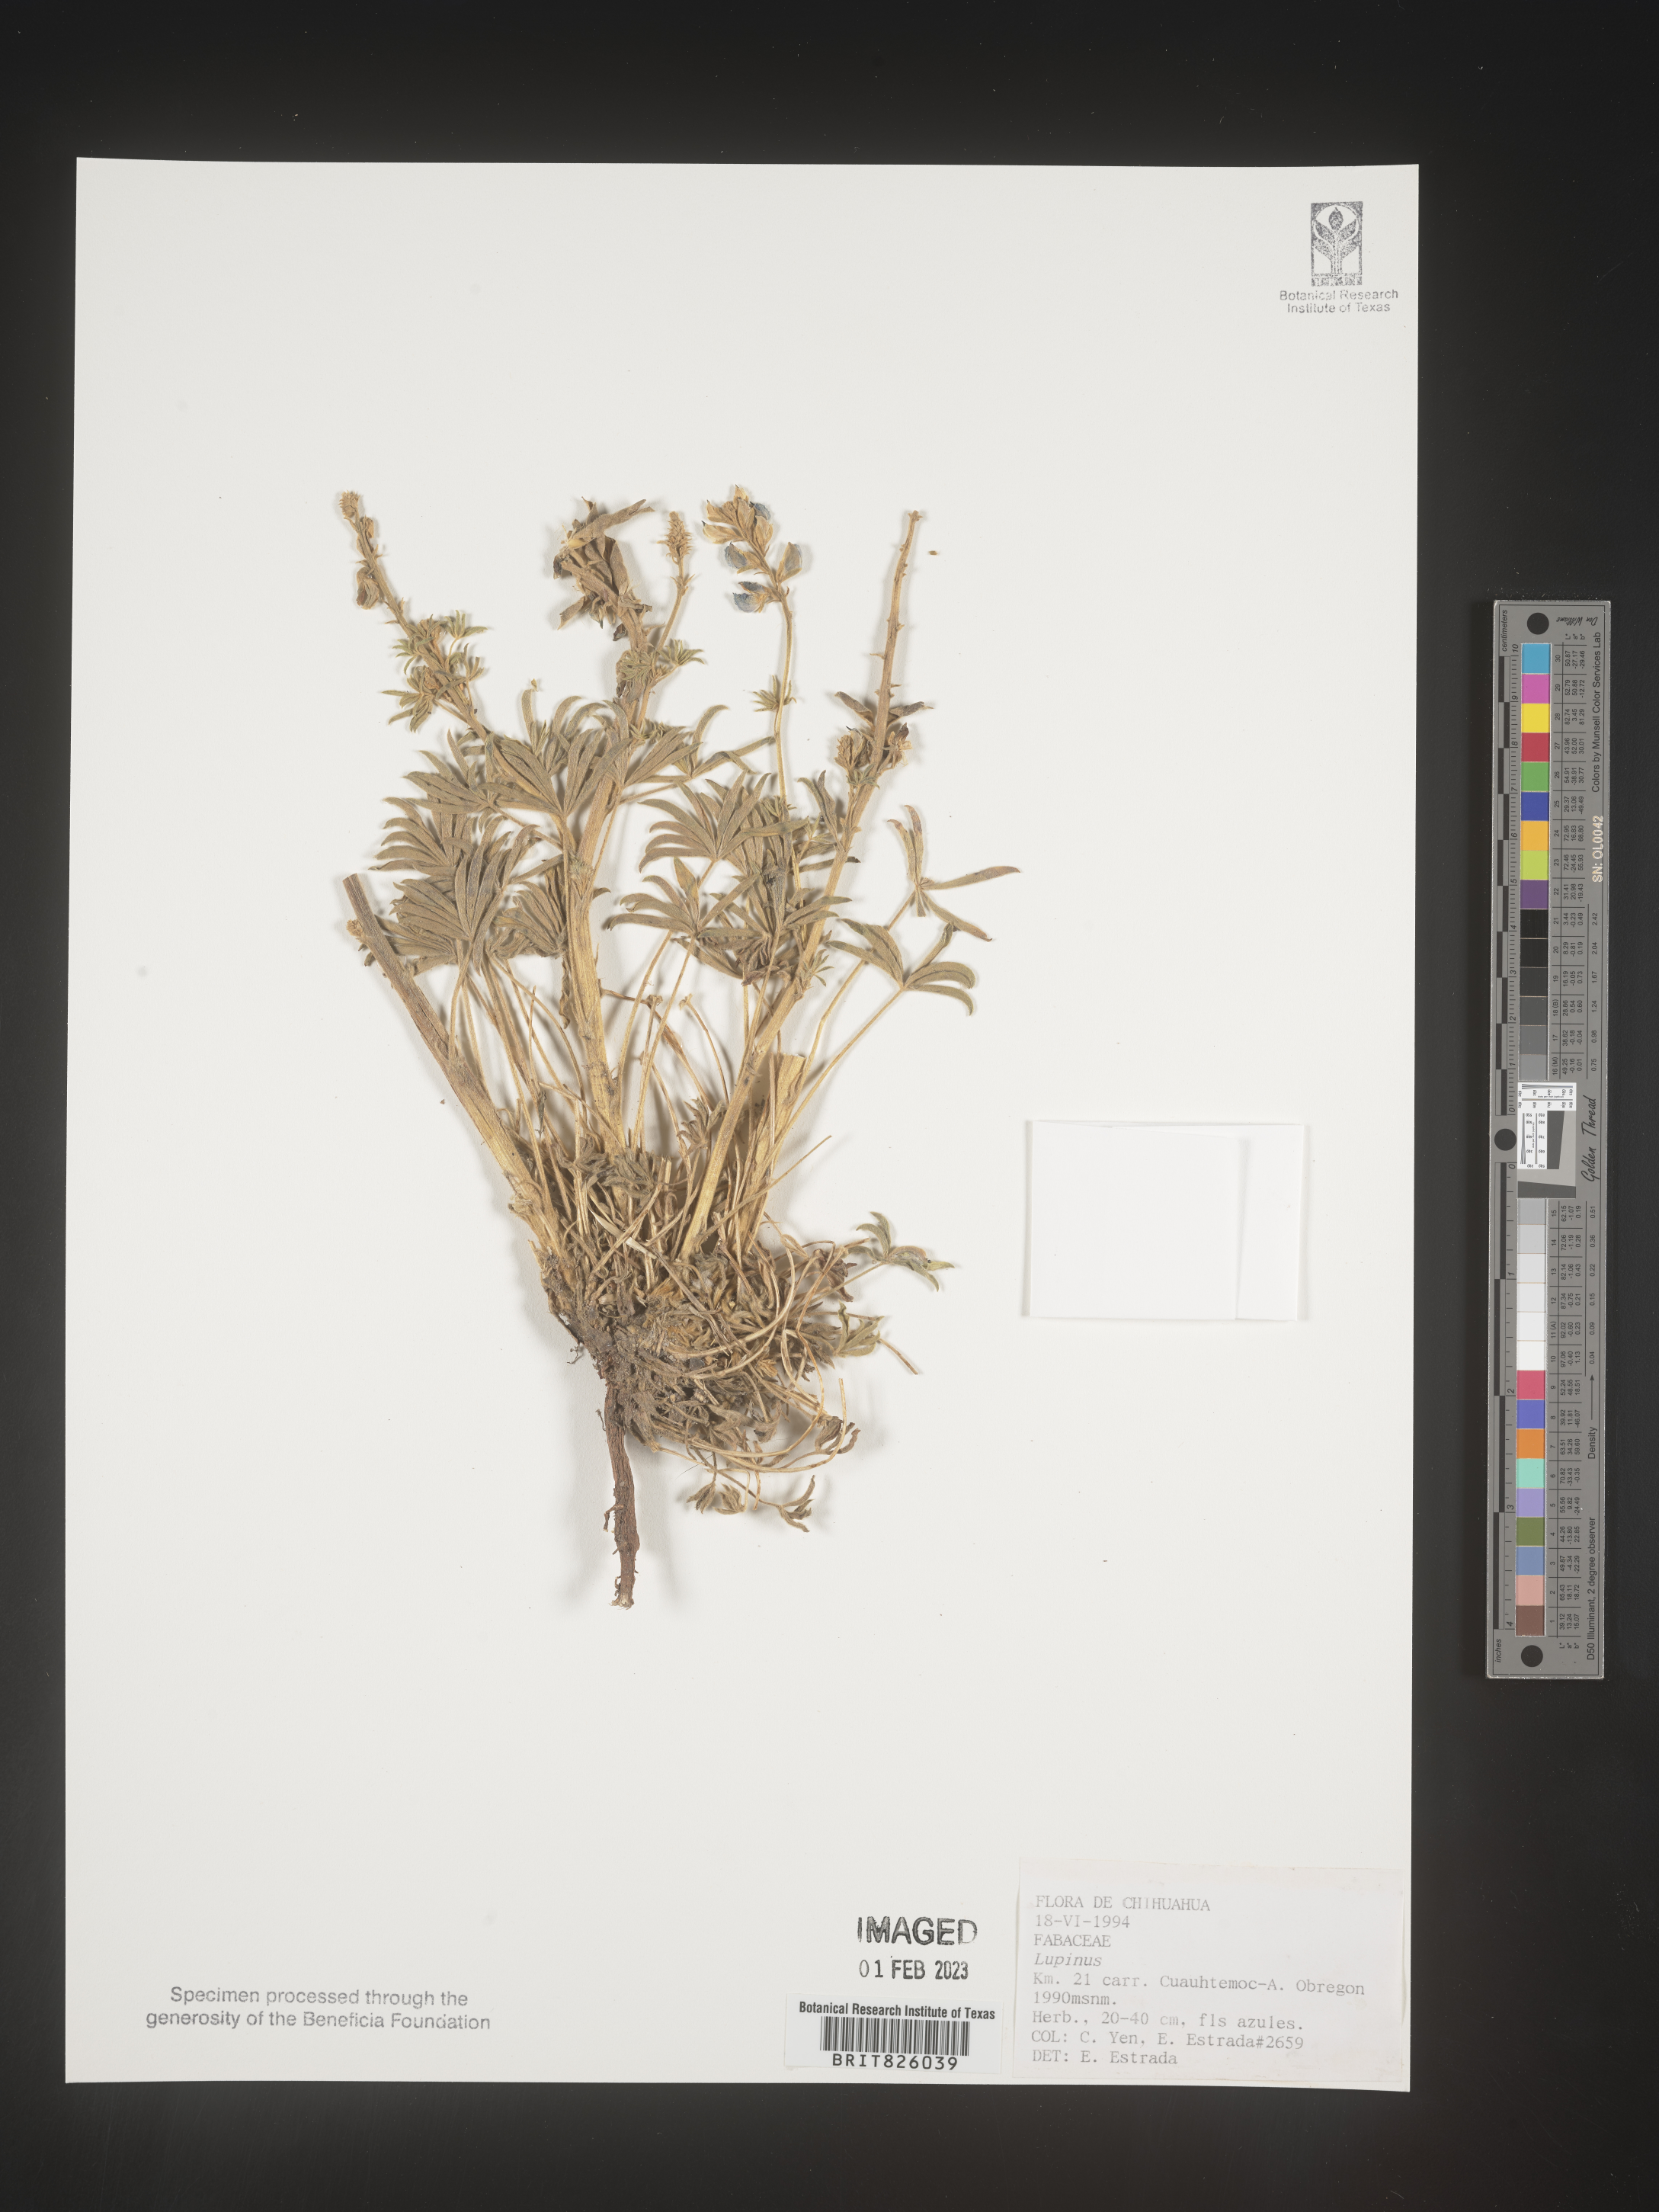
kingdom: Plantae
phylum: Tracheophyta
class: Magnoliopsida
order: Fabales
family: Fabaceae
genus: Lupinus
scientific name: Lupinus
